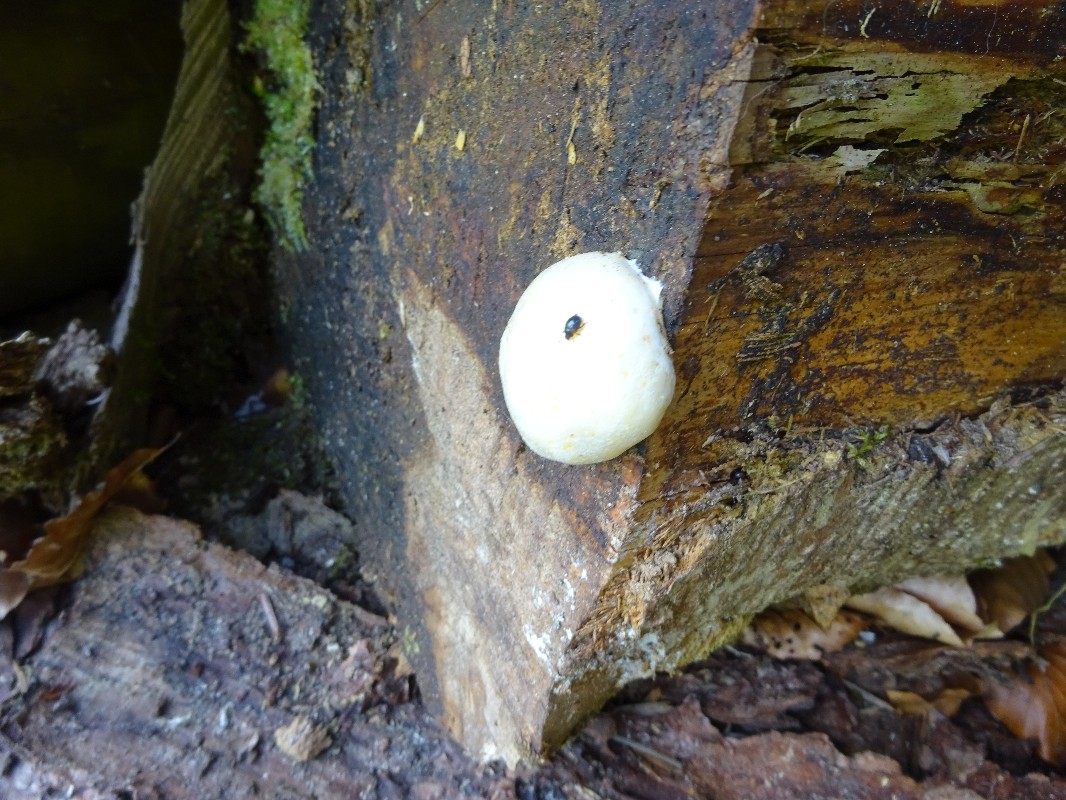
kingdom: Protozoa
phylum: Mycetozoa
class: Myxomycetes
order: Cribrariales
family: Tubiferaceae
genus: Reticularia
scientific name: Reticularia lycoperdon
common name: skinnende støvpude
